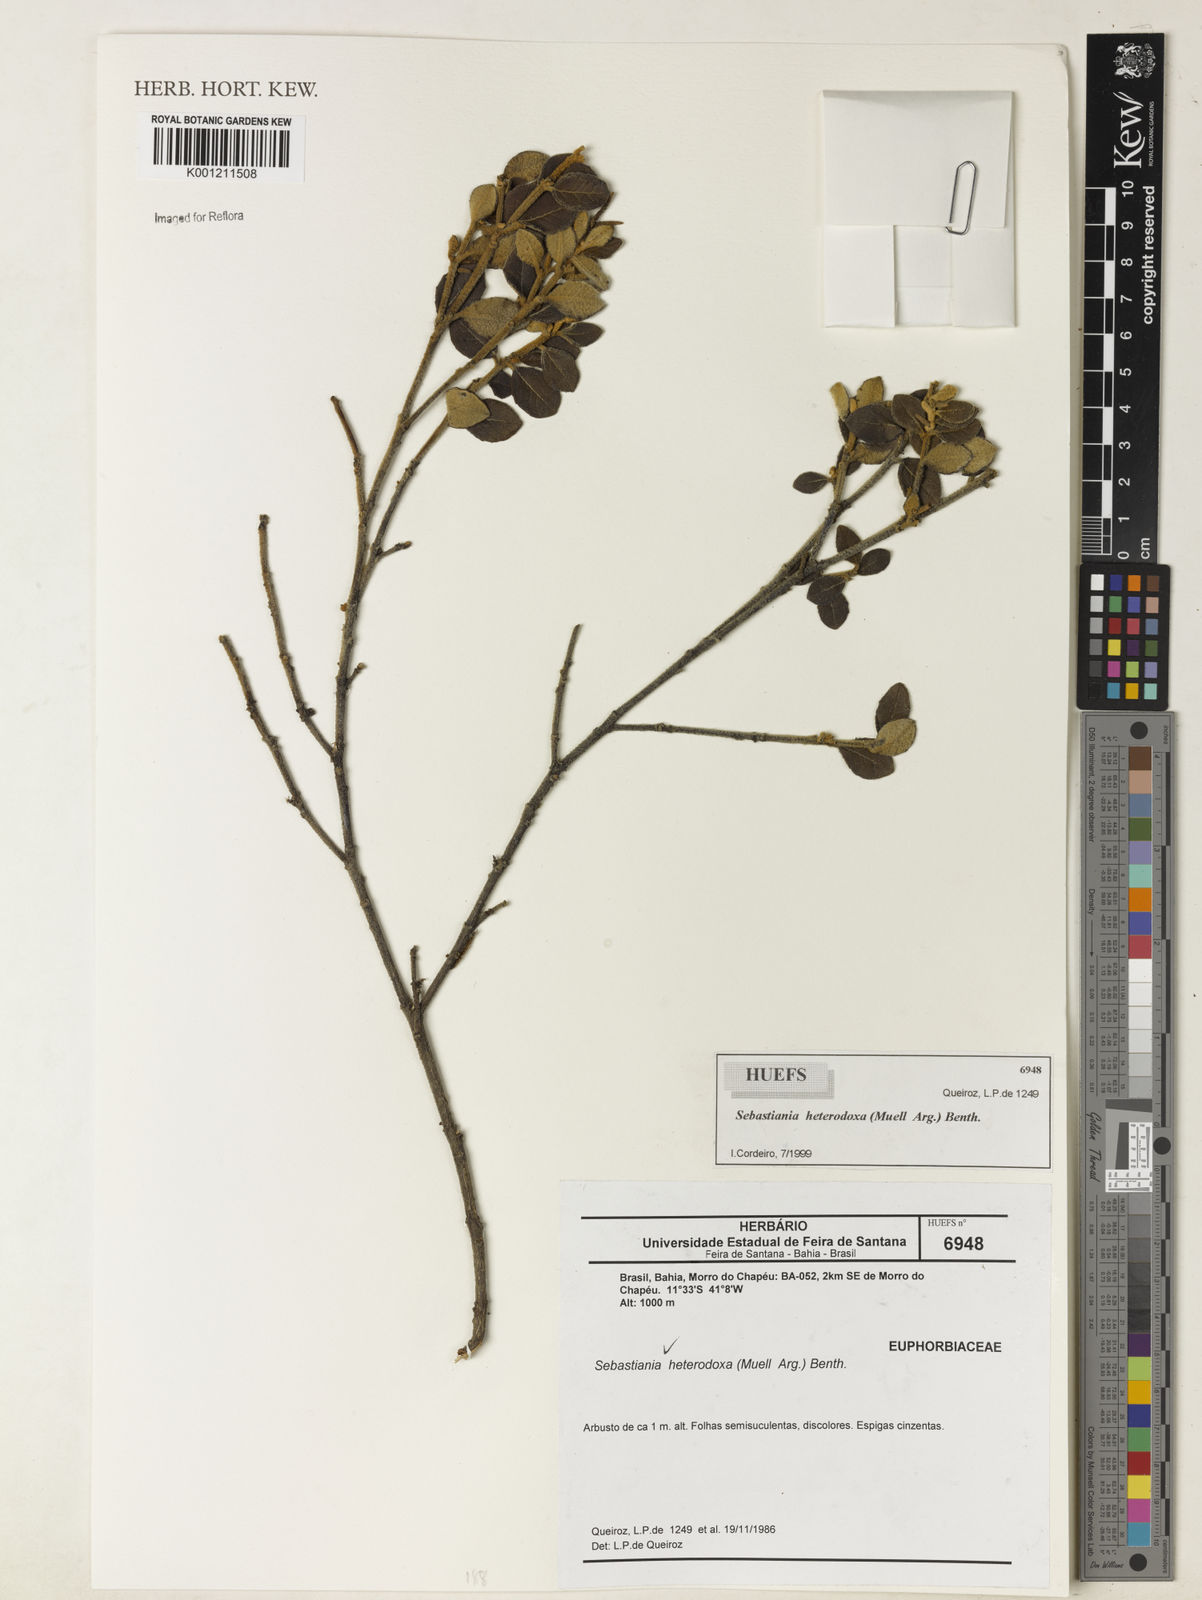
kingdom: Plantae
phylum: Tracheophyta
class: Magnoliopsida
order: Malpighiales
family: Euphorbiaceae
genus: Microstachys
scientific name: Microstachys
